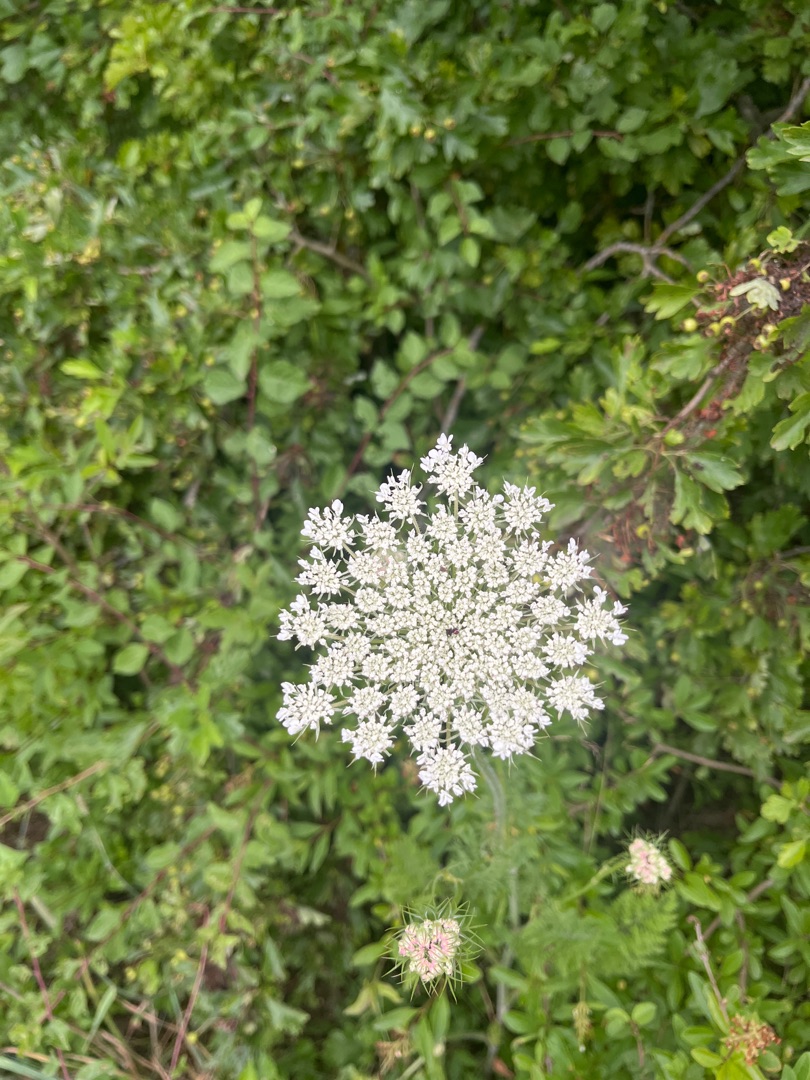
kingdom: Plantae
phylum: Tracheophyta
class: Magnoliopsida
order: Apiales
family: Apiaceae
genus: Daucus
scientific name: Daucus carota
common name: Gulerod
